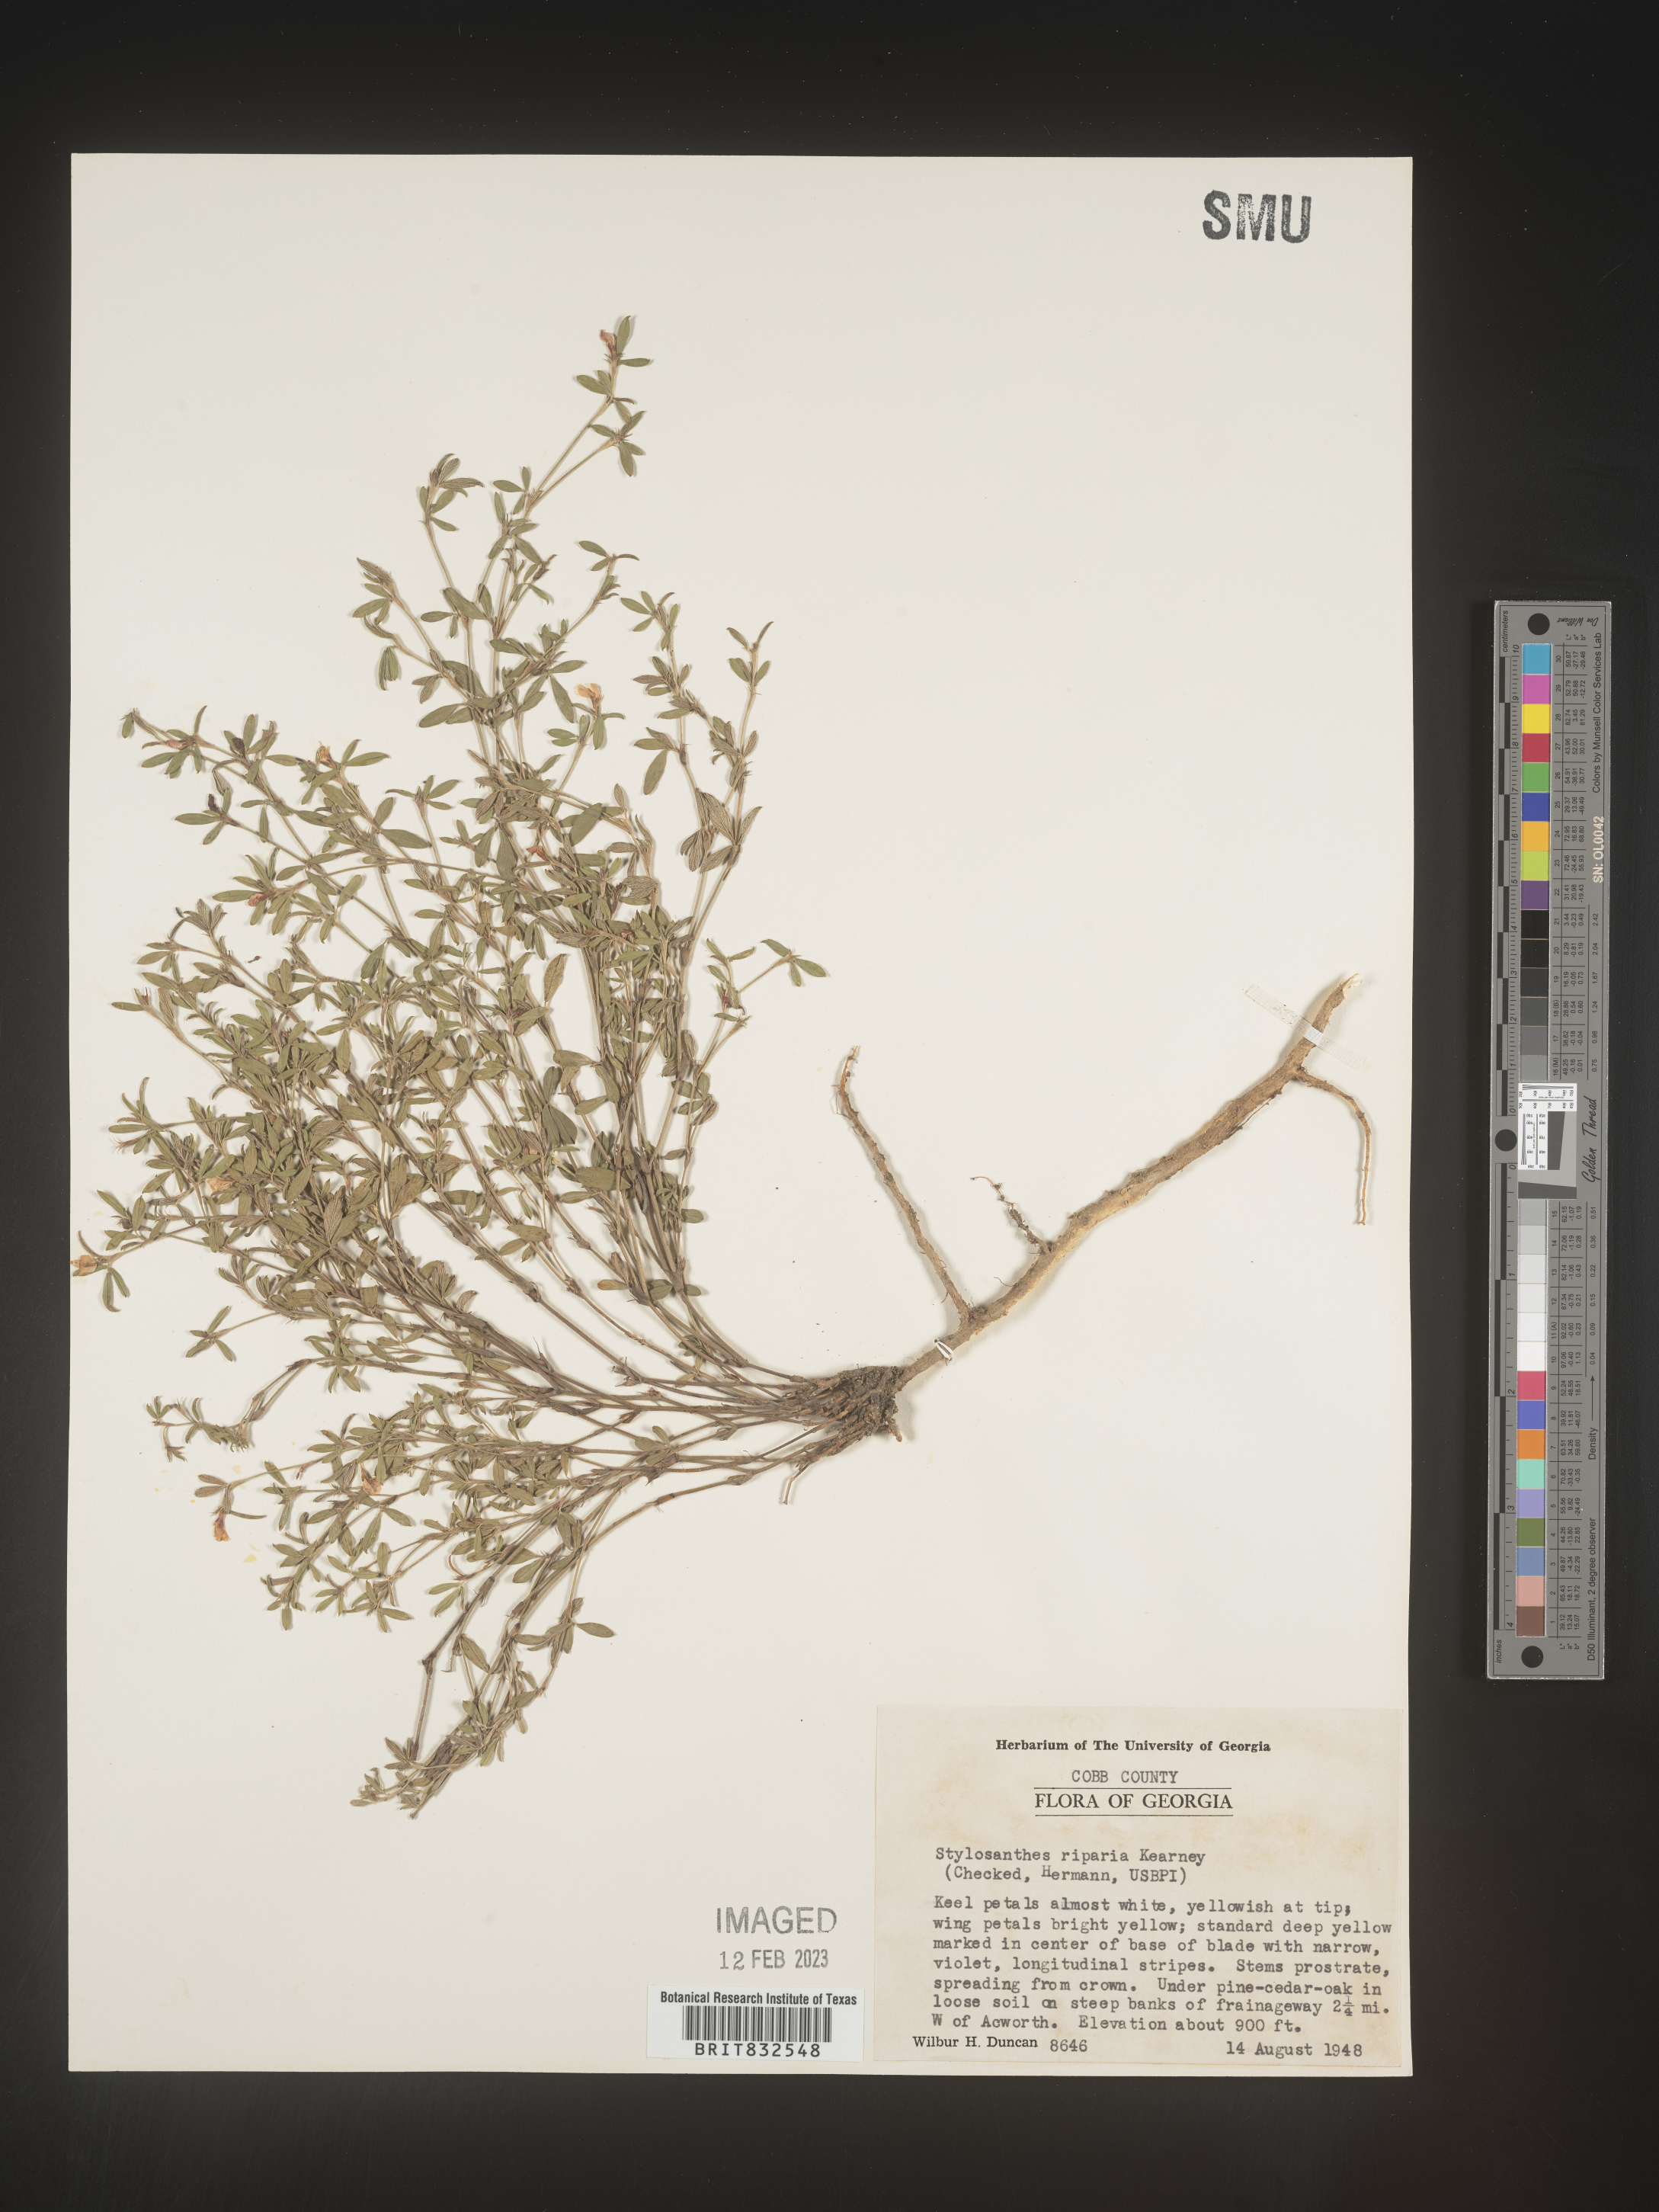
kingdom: Plantae
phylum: Tracheophyta
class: Magnoliopsida
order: Fabales
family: Fabaceae
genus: Stylosanthes
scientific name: Stylosanthes
